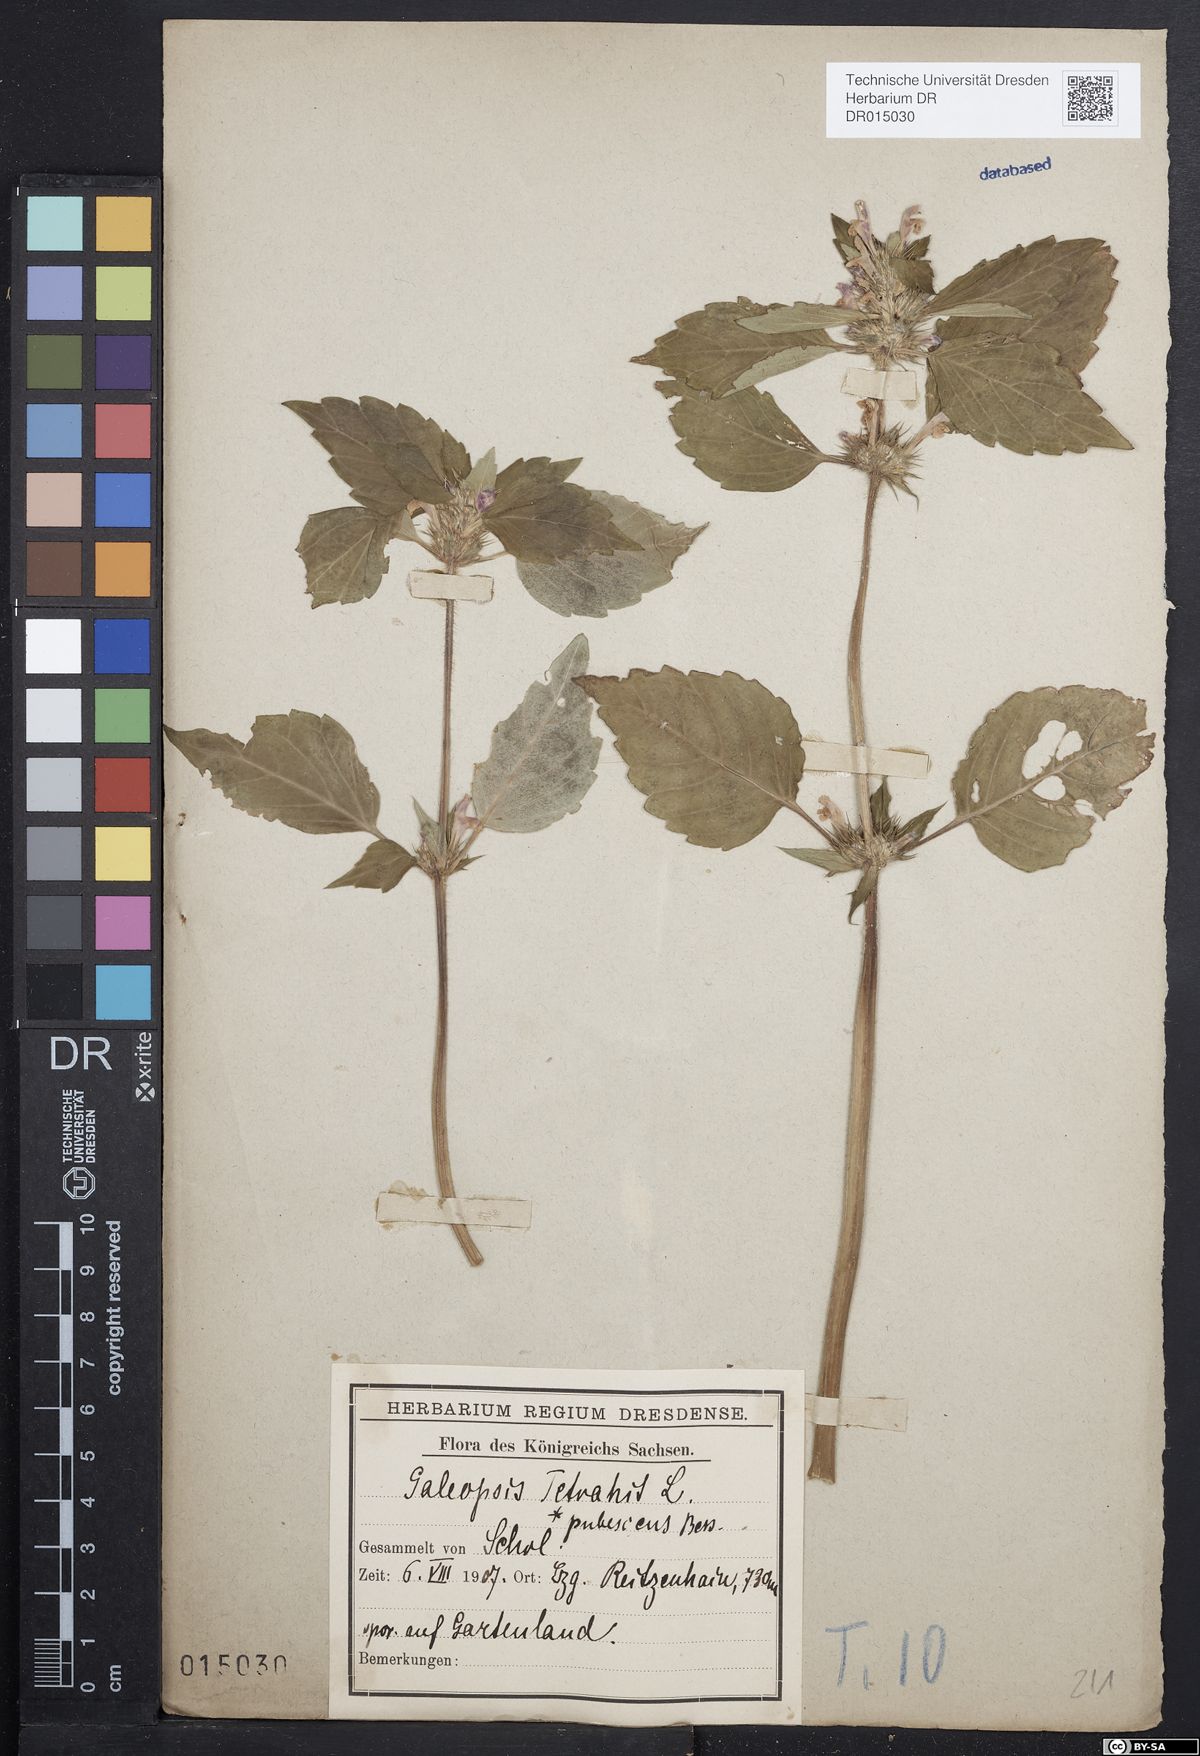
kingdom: Plantae
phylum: Tracheophyta
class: Magnoliopsida
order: Lamiales
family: Lamiaceae
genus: Galeopsis
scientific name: Galeopsis pubescens
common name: Downy hemp-nettle
